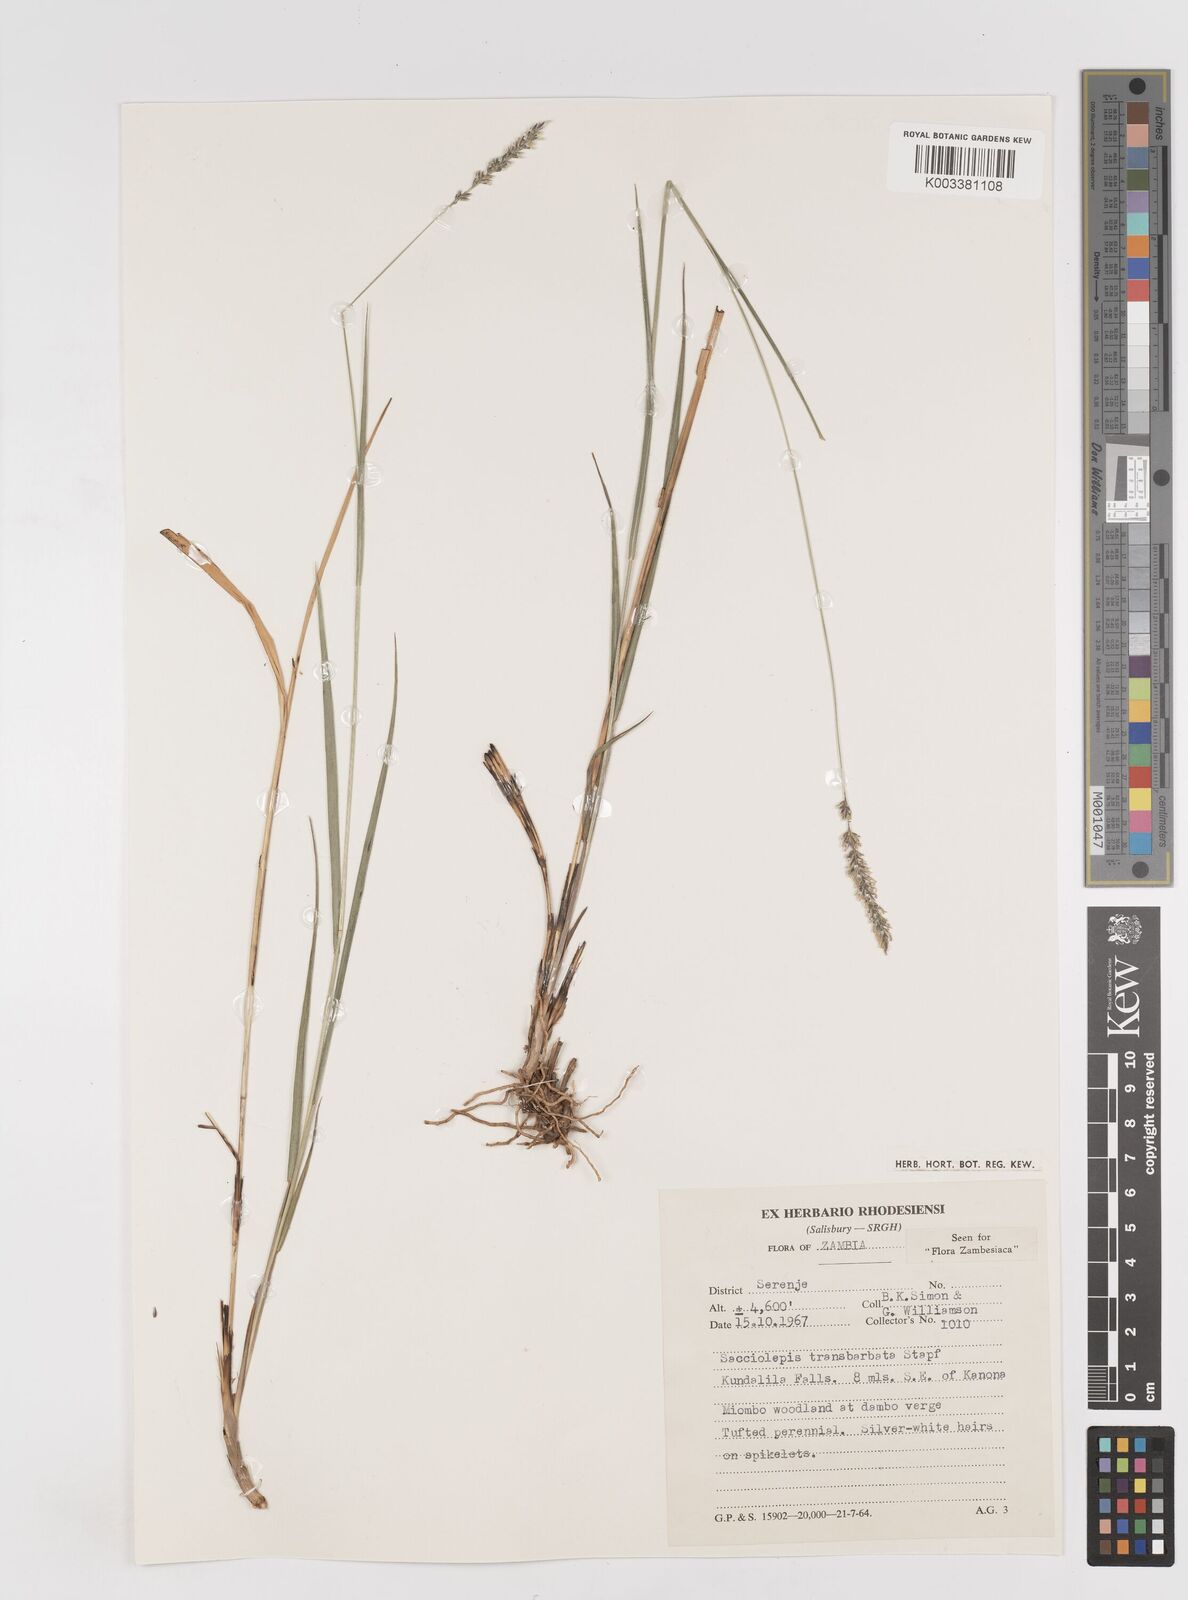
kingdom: Plantae
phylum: Tracheophyta
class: Liliopsida
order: Poales
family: Poaceae
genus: Sacciolepis
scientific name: Sacciolepis transbarbata
